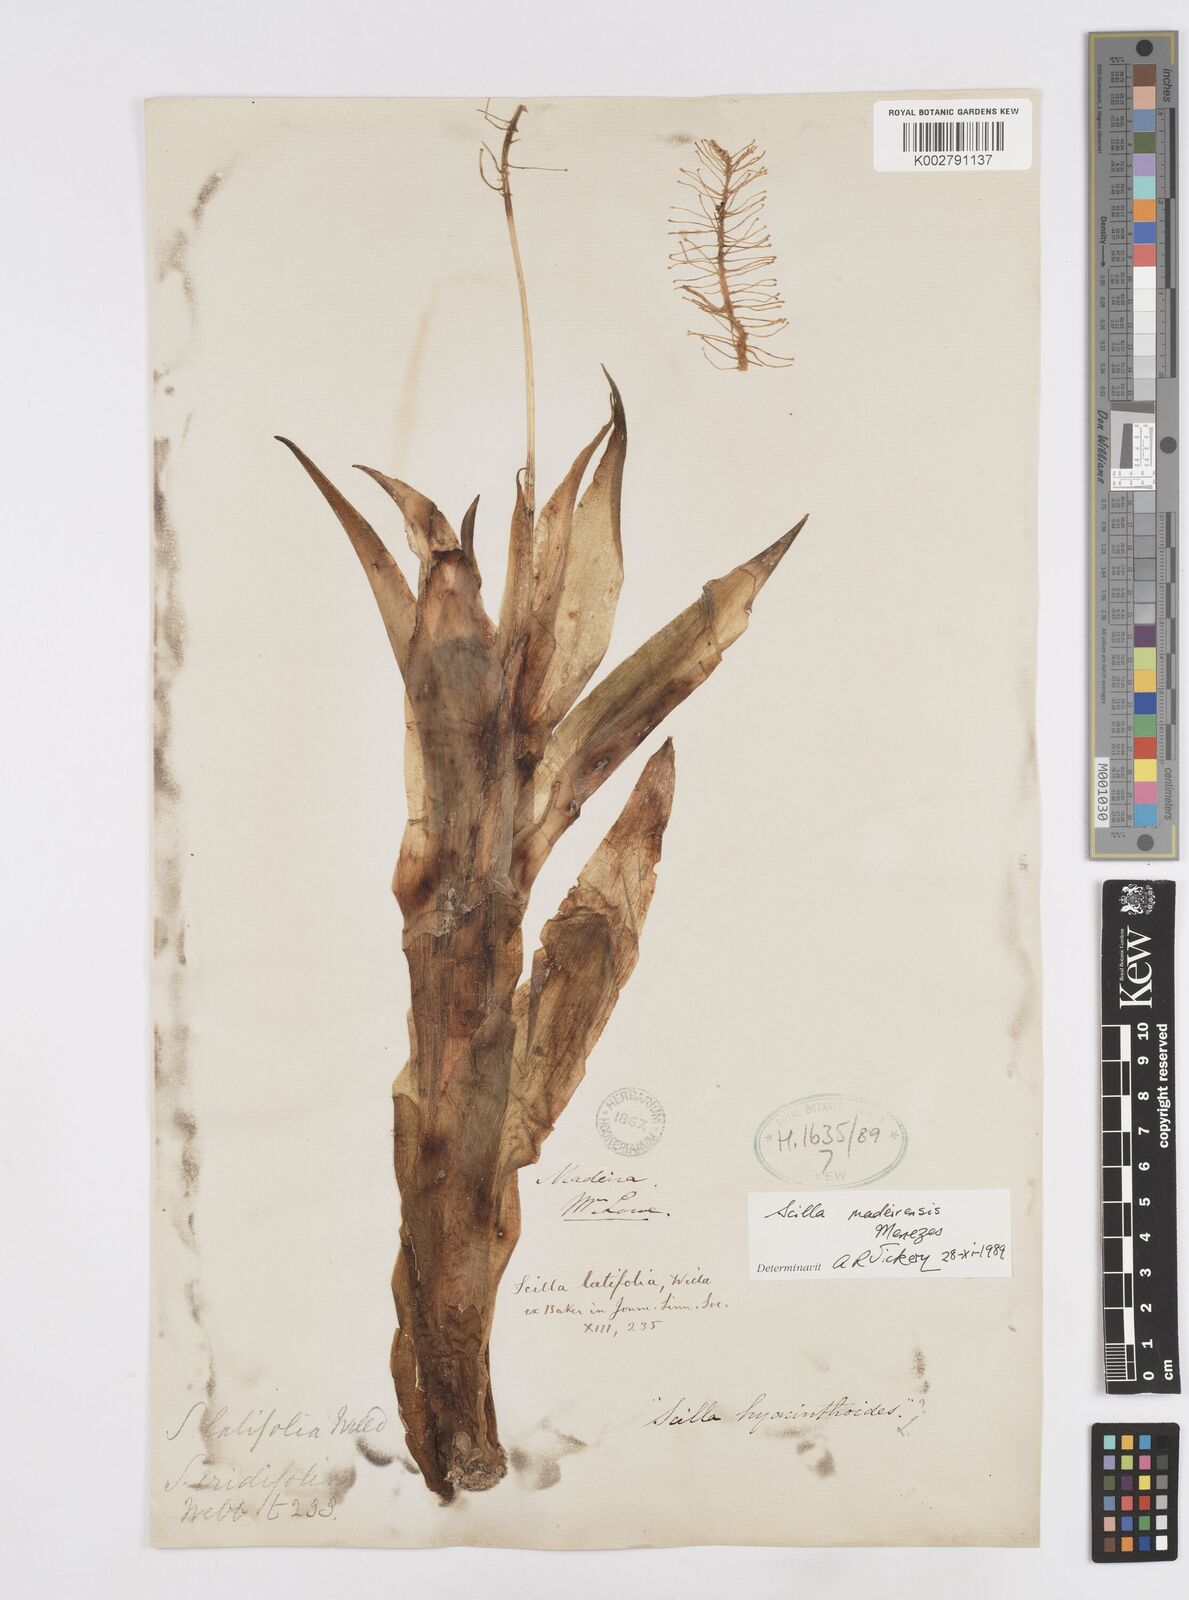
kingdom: Plantae
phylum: Tracheophyta
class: Liliopsida
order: Asparagales
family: Asparagaceae
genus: Scilla
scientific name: Scilla madeirensis
